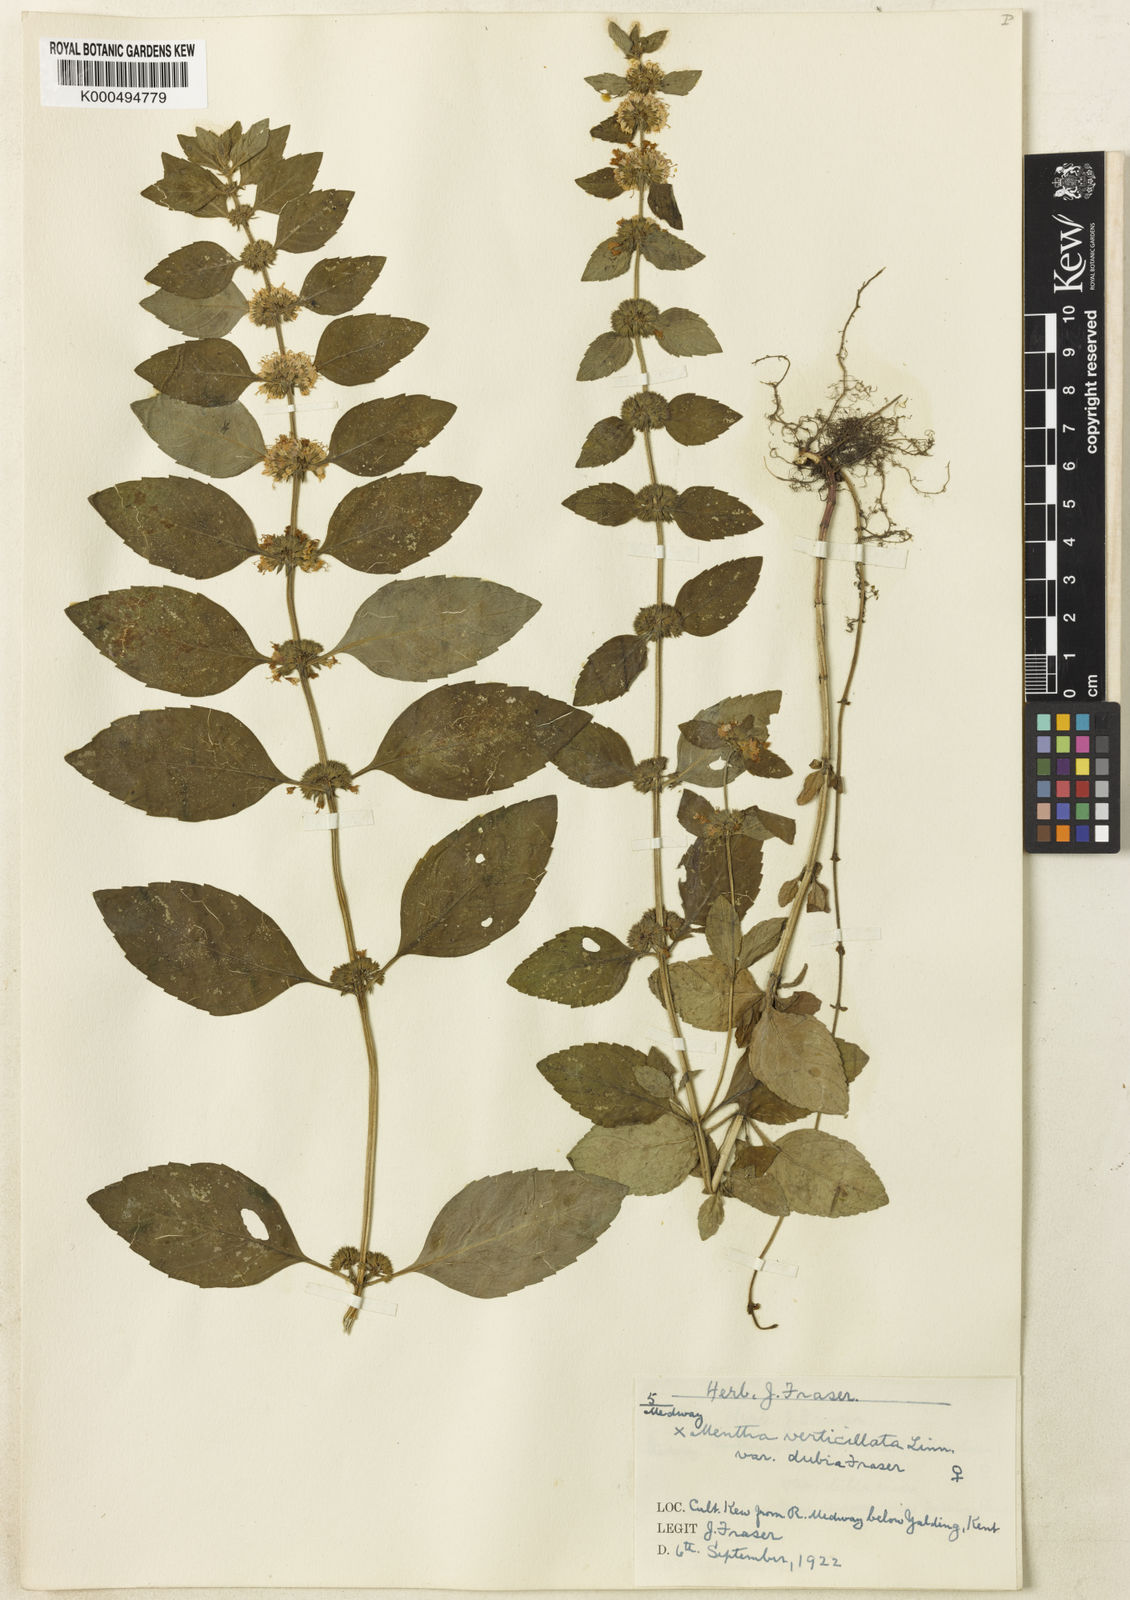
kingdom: Plantae
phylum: Tracheophyta
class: Magnoliopsida
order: Lamiales
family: Lamiaceae
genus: Mentha
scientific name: Mentha verticillata
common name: Mint
